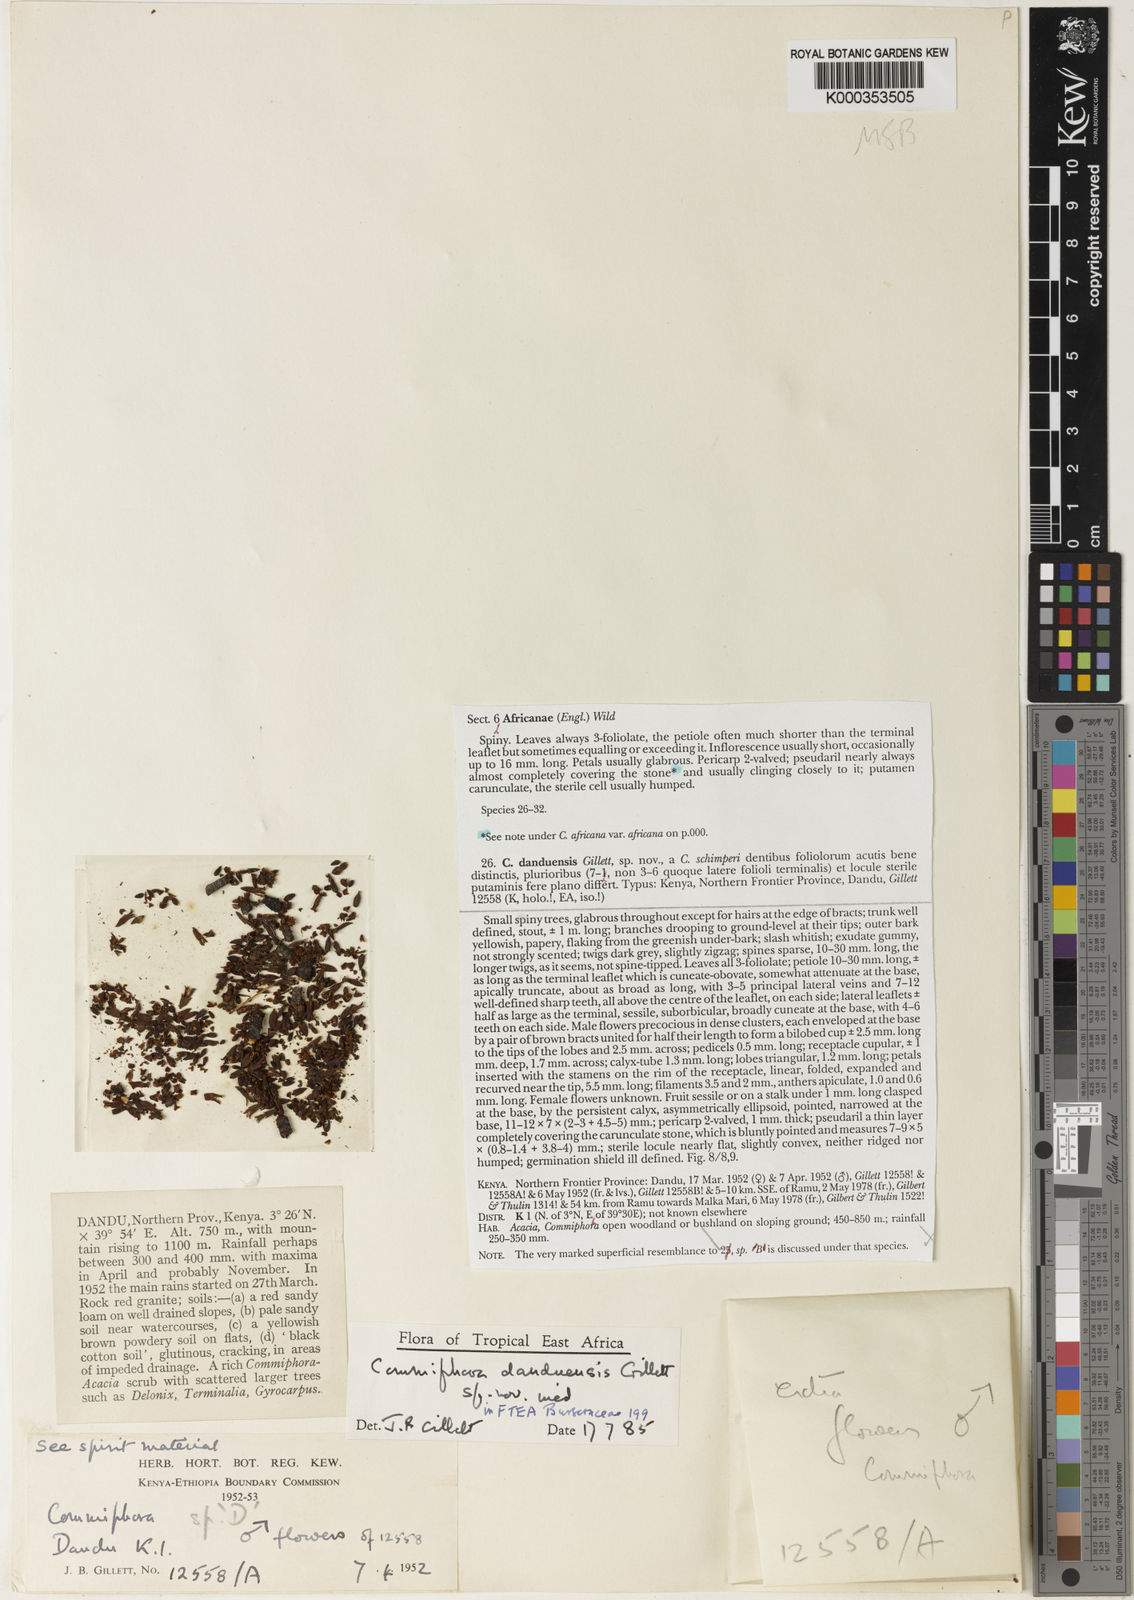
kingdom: Plantae
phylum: Tracheophyta
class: Magnoliopsida
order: Sapindales
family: Burseraceae
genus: Commiphora
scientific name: Commiphora samharensis
